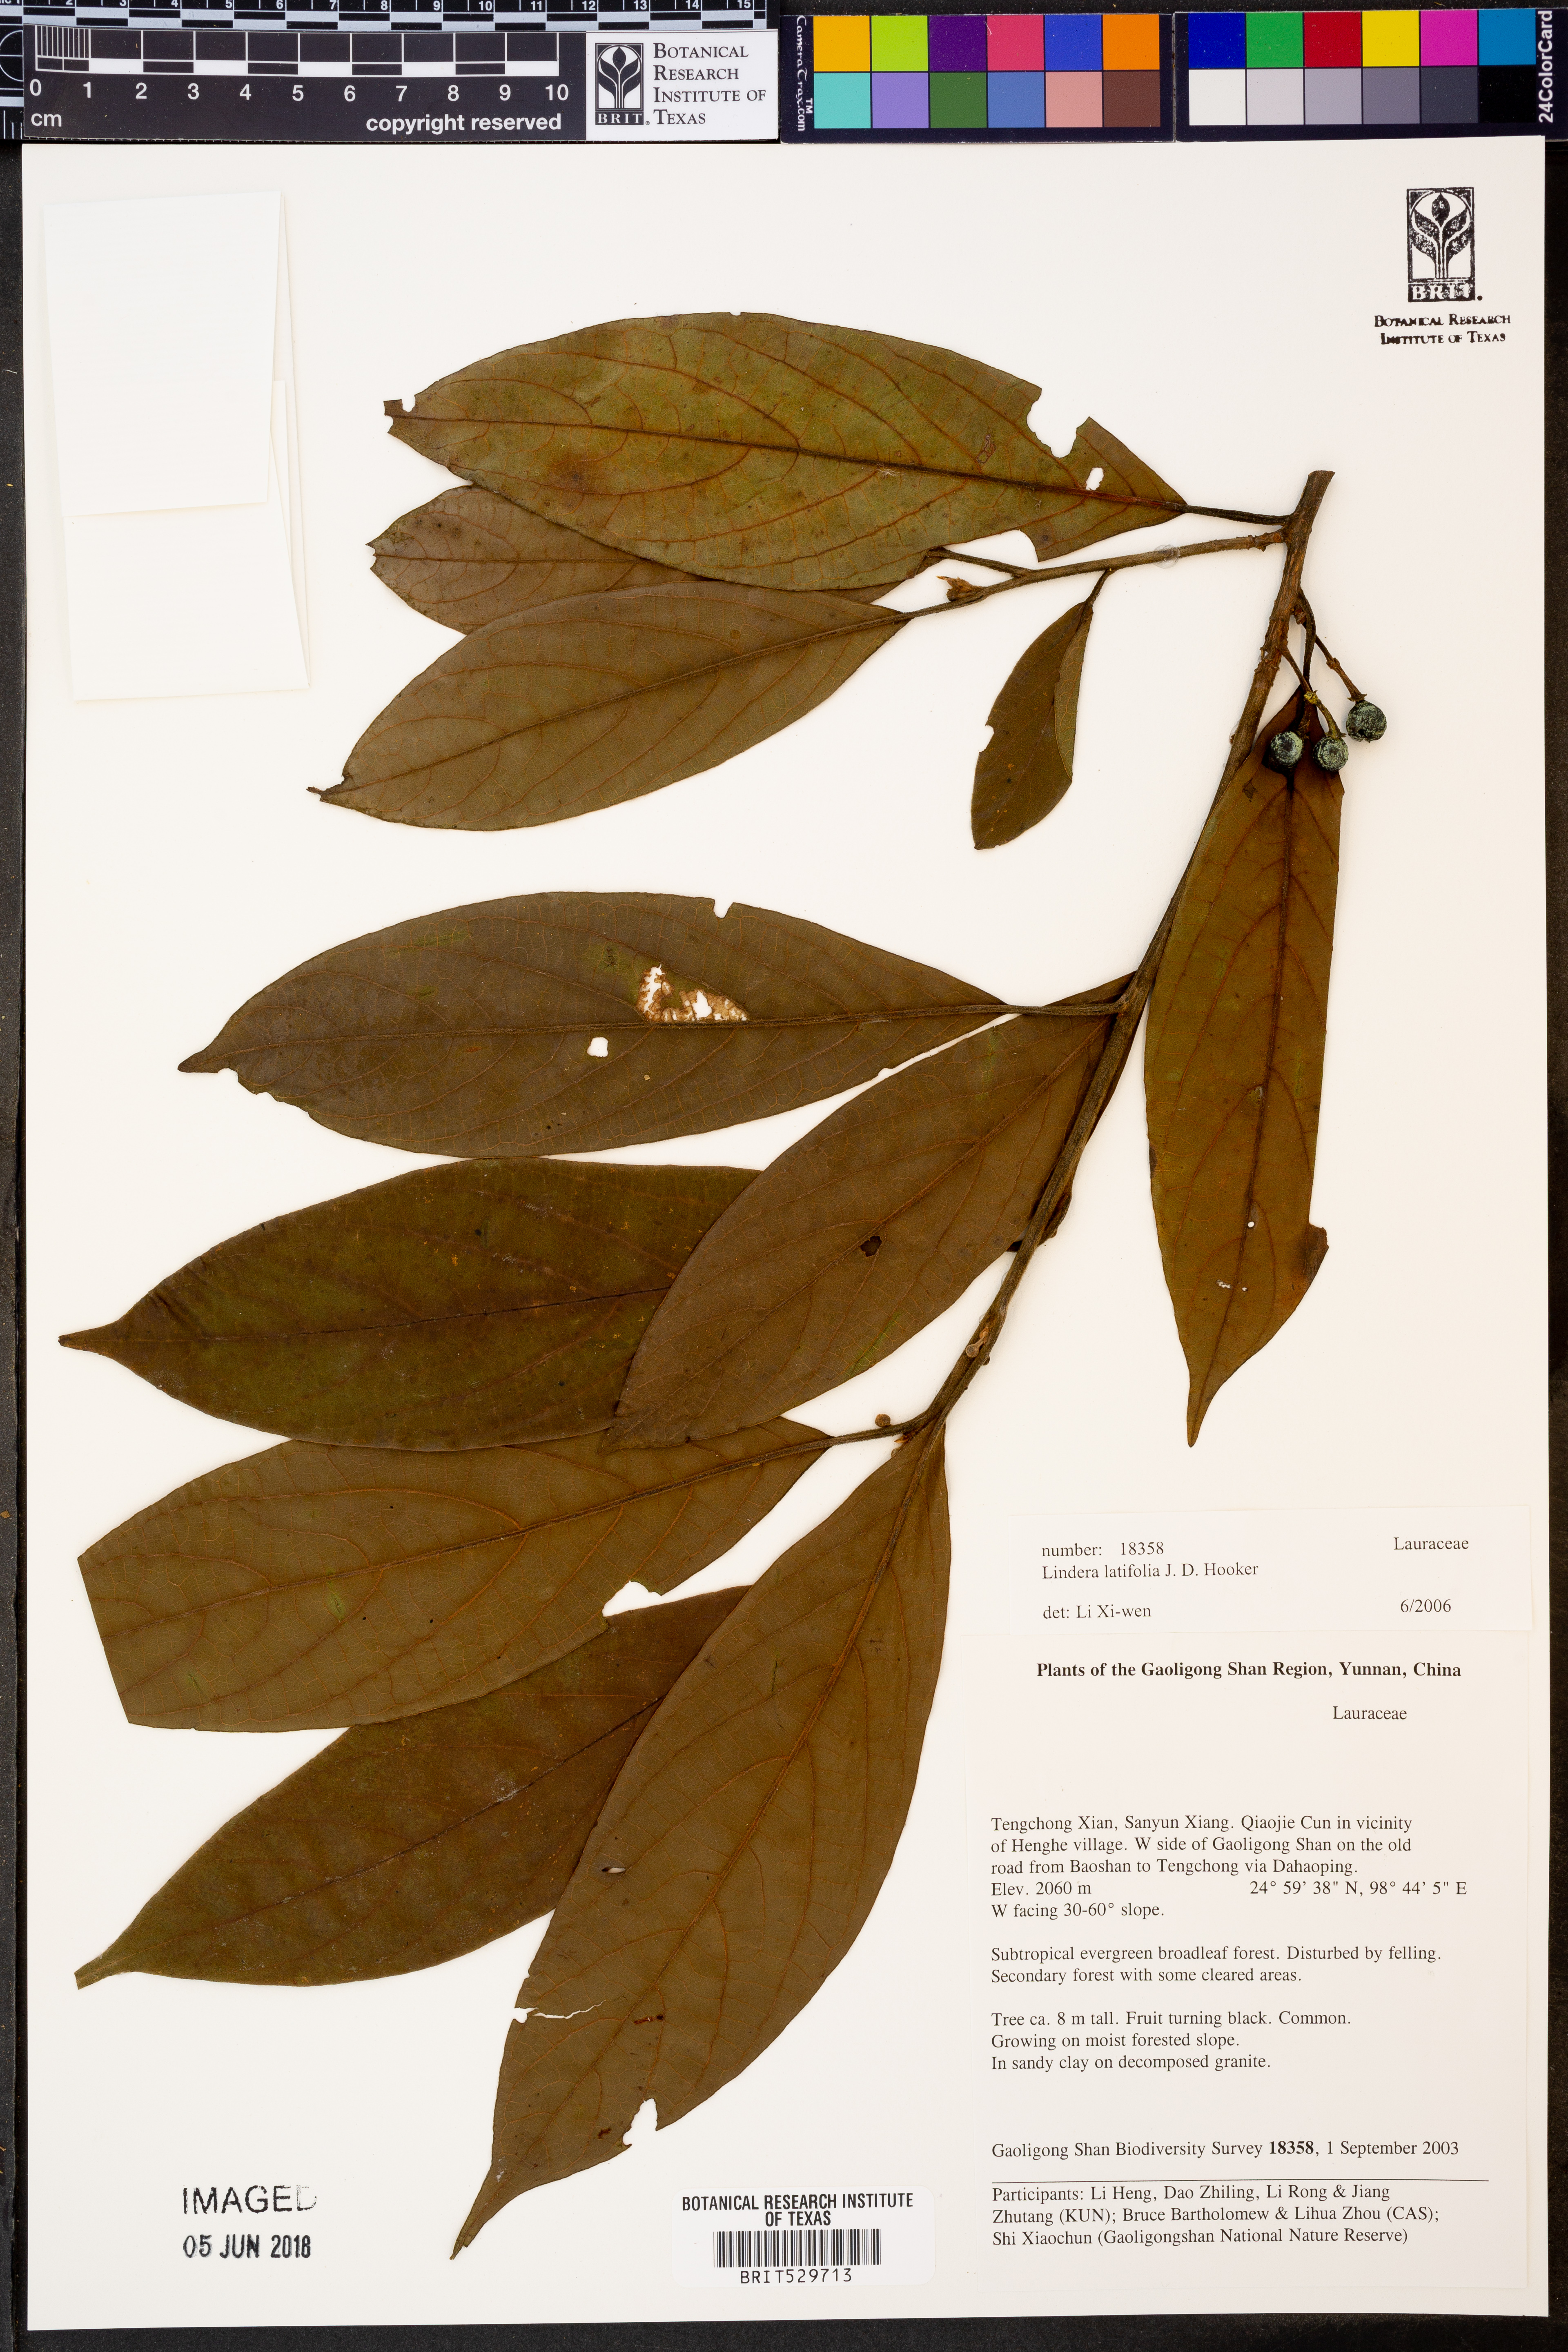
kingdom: Plantae
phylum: Tracheophyta
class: Magnoliopsida
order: Laurales
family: Lauraceae
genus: Lindera
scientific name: Lindera latifolia
